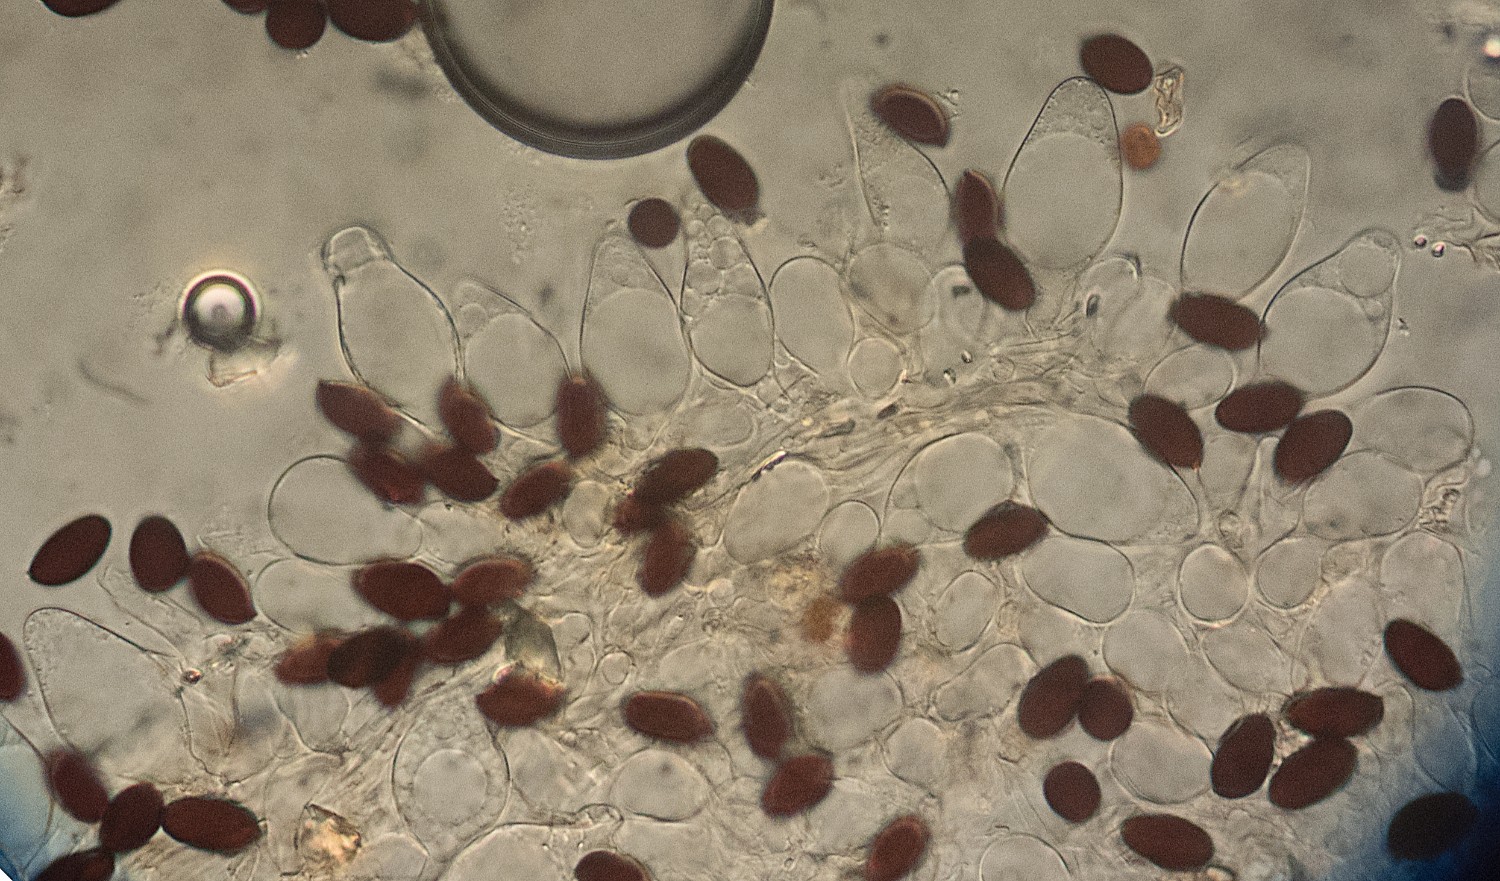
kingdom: Fungi
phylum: Basidiomycota
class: Agaricomycetes
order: Agaricales
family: Psathyrellaceae
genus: Parasola
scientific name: Parasola conopilea
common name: kegle-hjulhat
